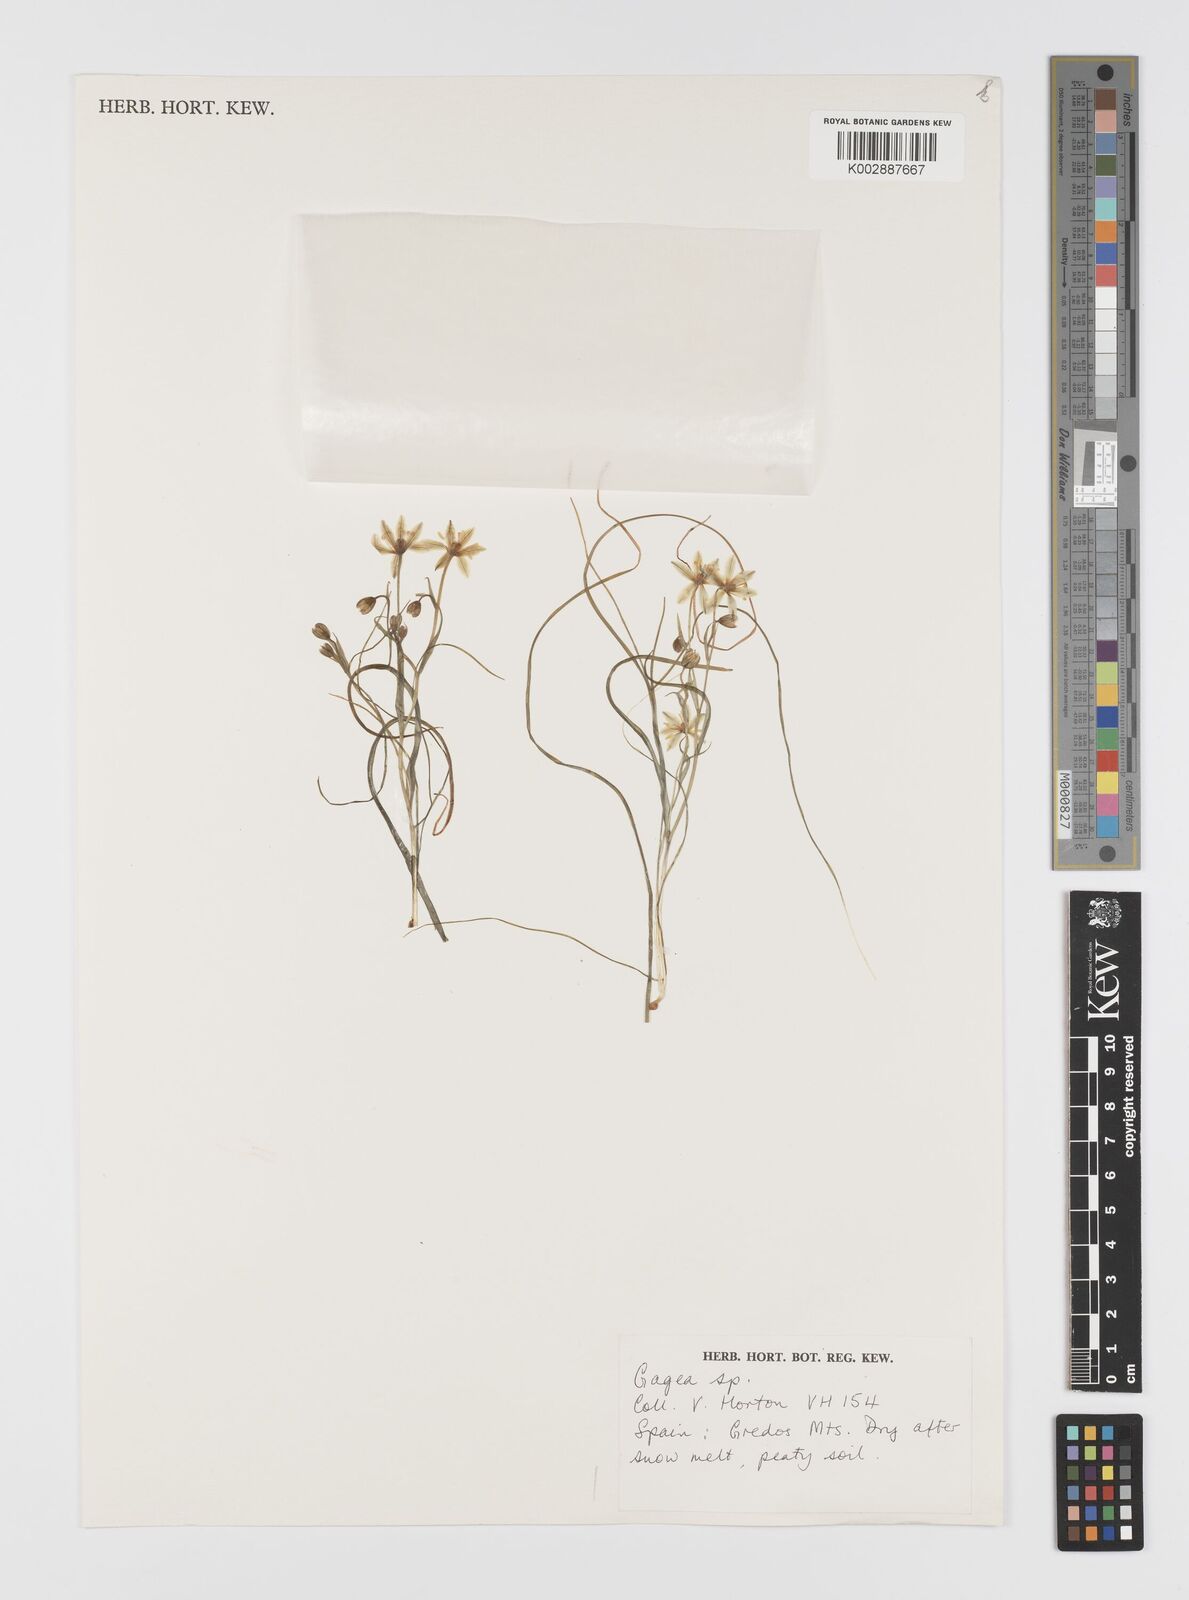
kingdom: Plantae
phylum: Tracheophyta
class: Liliopsida
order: Liliales
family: Liliaceae
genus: Gagea
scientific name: Gagea
